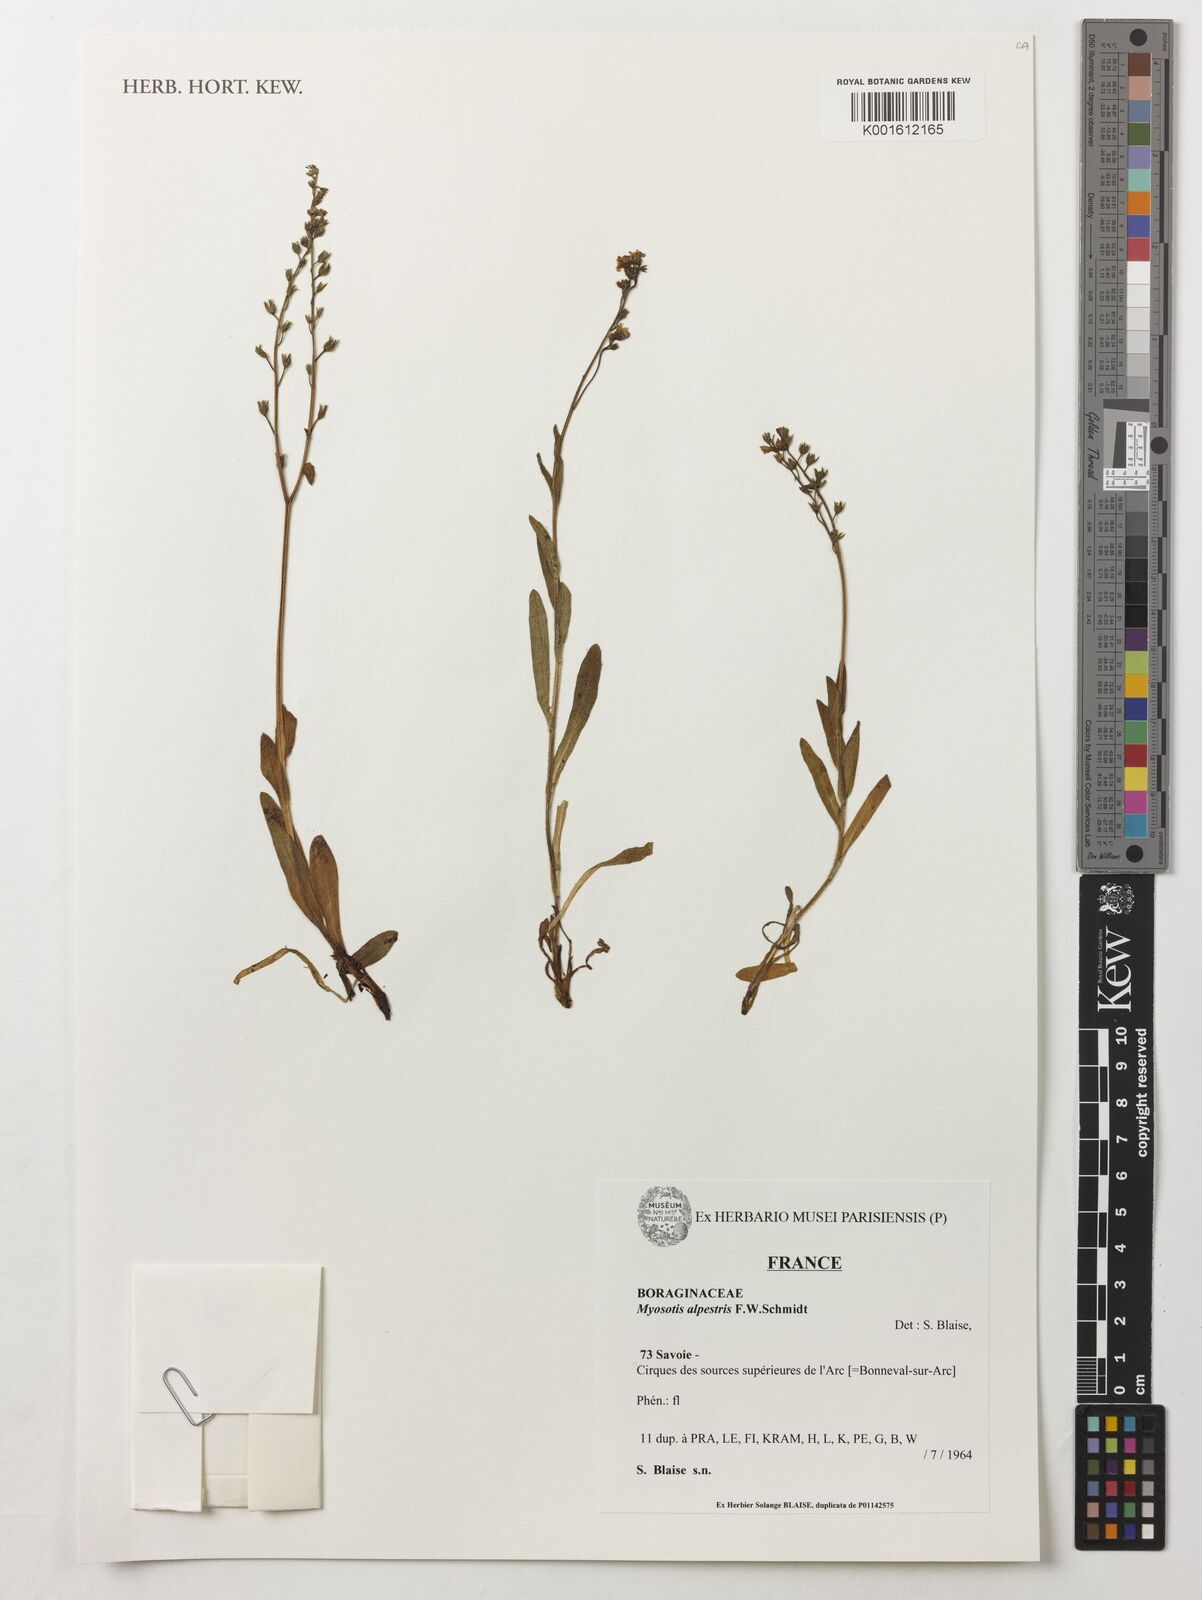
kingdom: Plantae
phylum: Tracheophyta
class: Magnoliopsida
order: Boraginales
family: Boraginaceae
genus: Myosotis
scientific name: Myosotis alpestris
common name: Alpine forget-me-not
